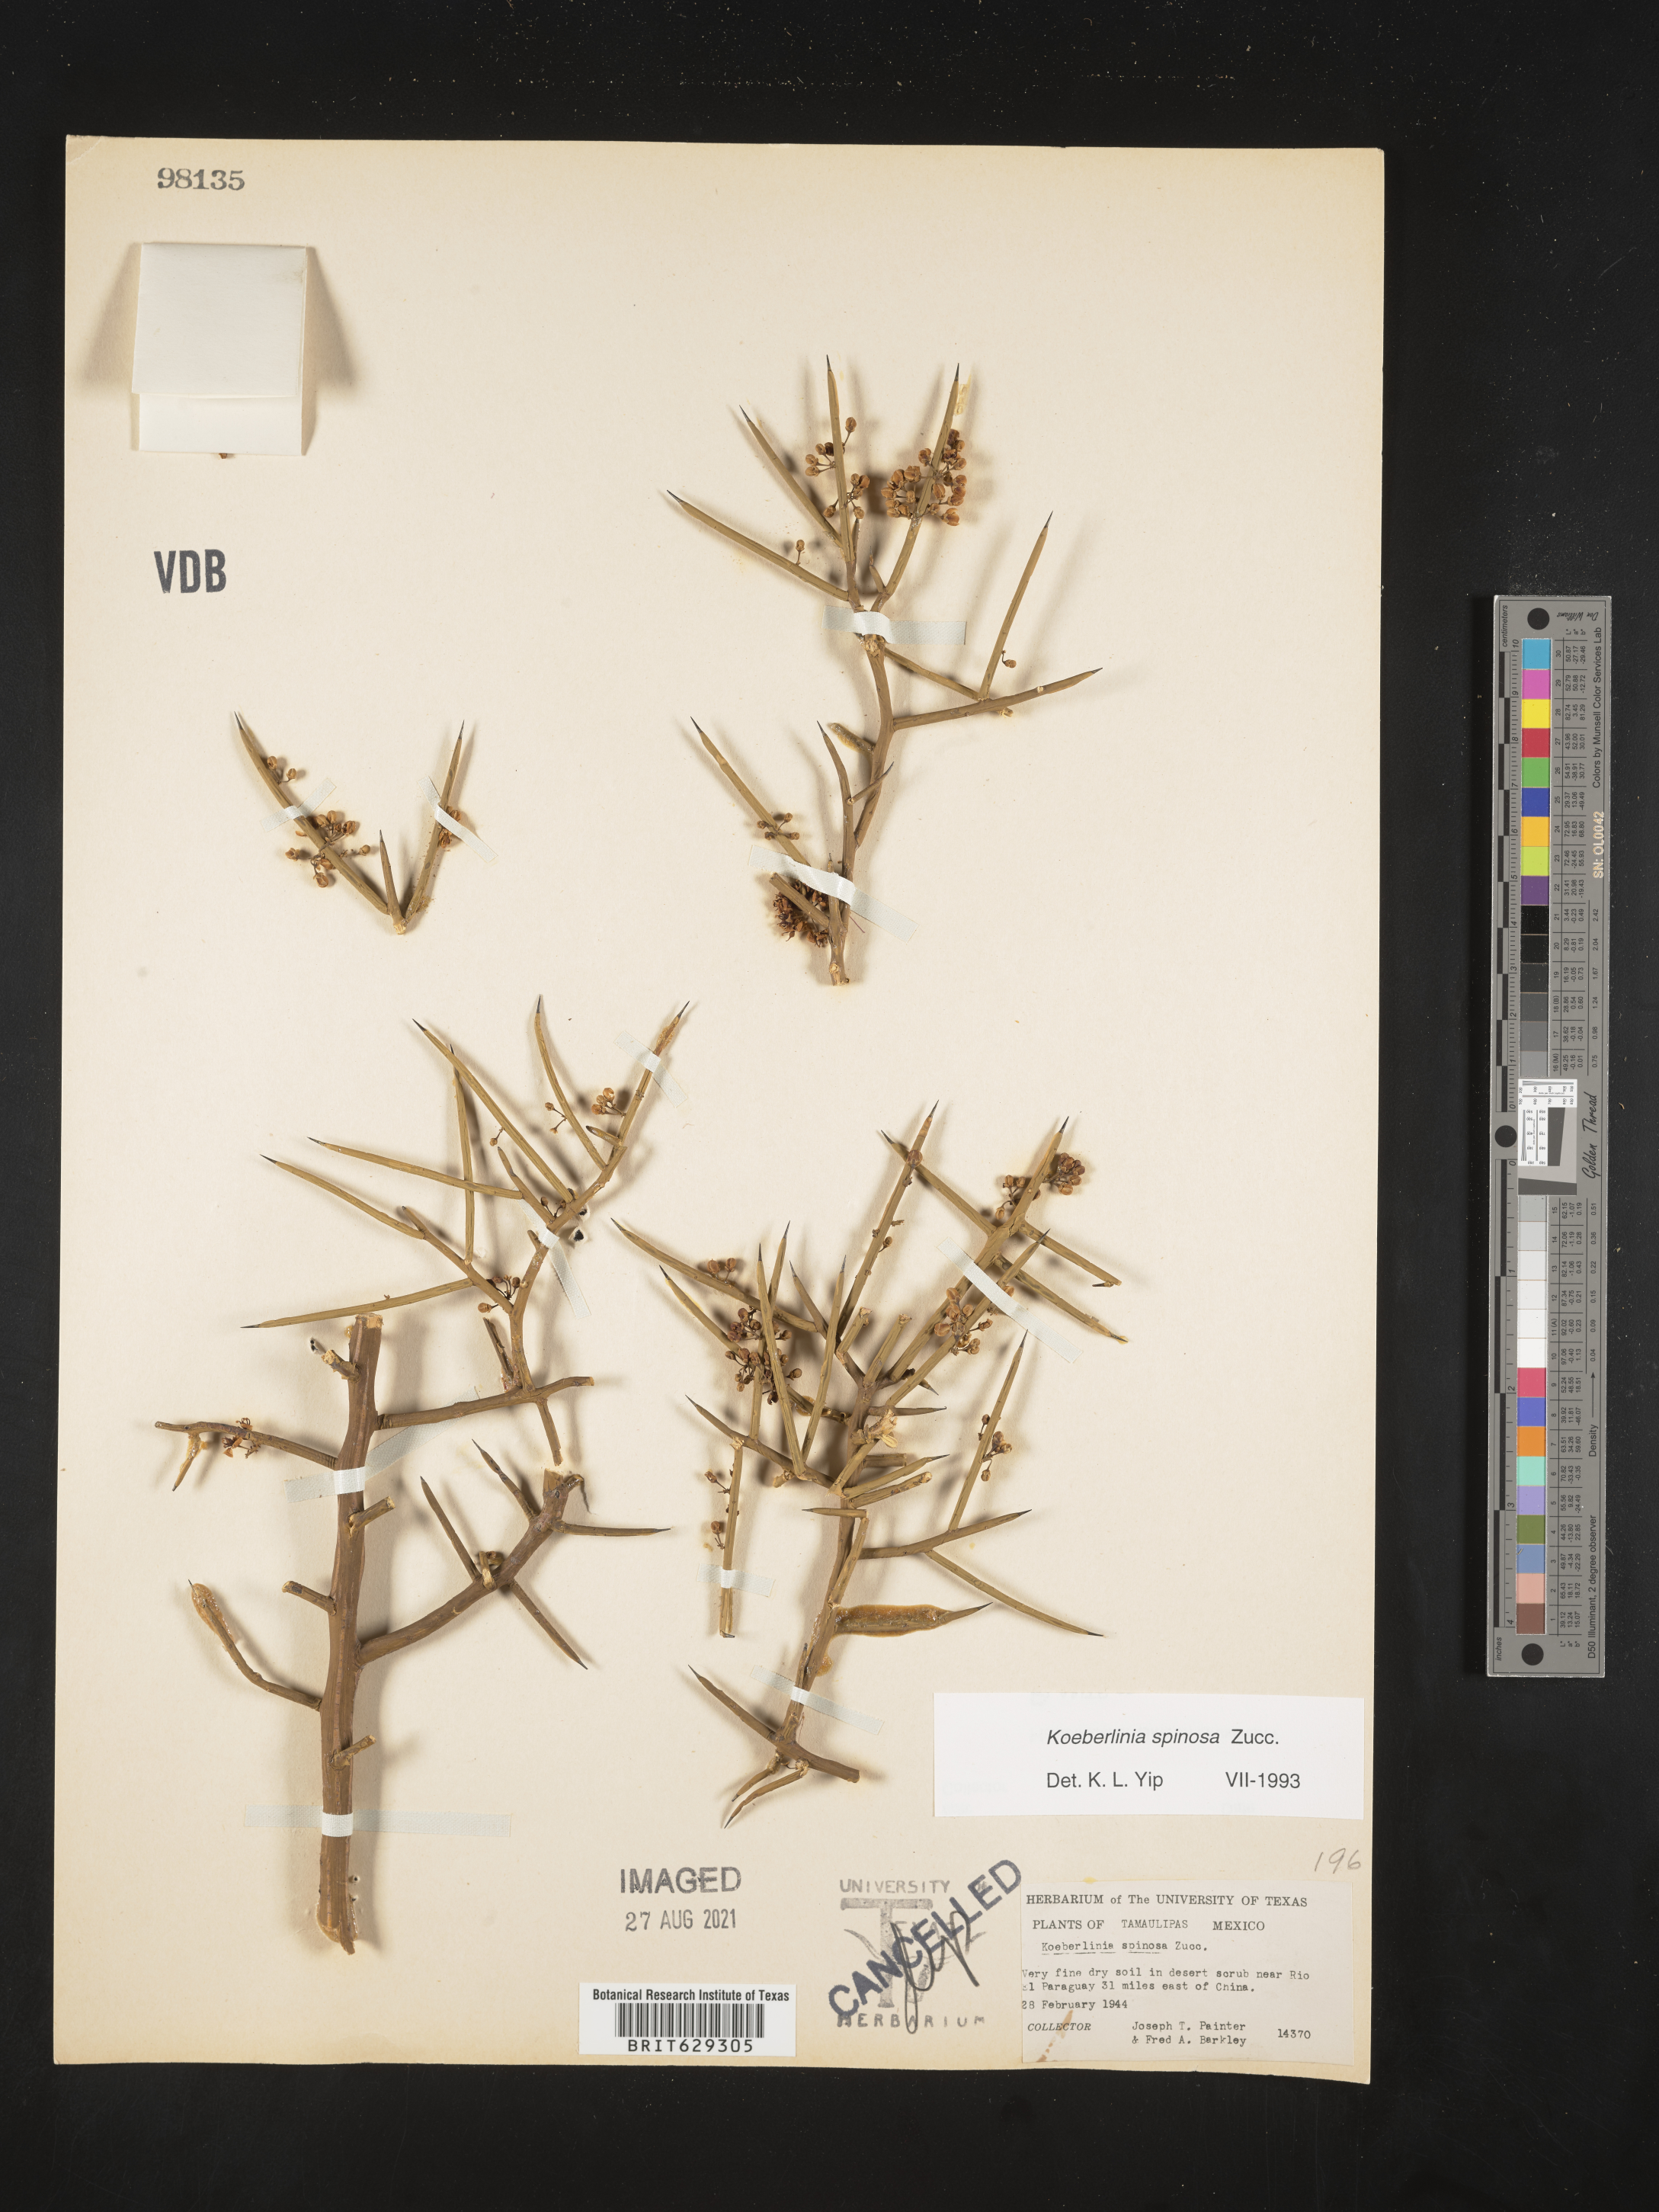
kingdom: Plantae
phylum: Tracheophyta
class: Magnoliopsida
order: Brassicales
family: Koeberliniaceae
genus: Koeberlinia
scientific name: Koeberlinia
